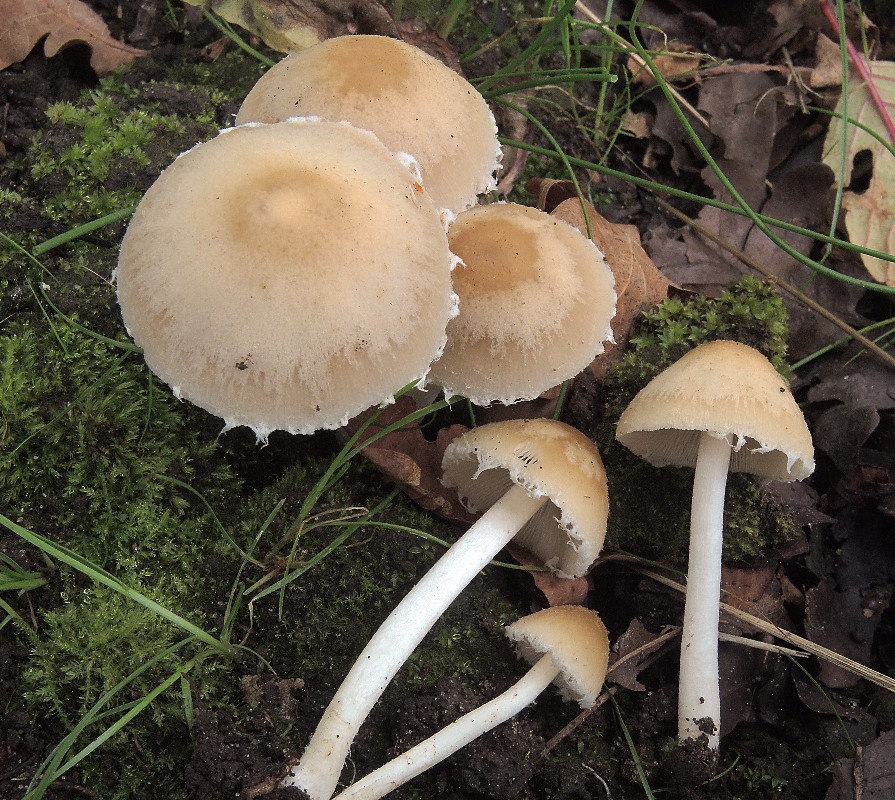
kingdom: Fungi
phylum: Basidiomycota
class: Agaricomycetes
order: Agaricales
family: Psathyrellaceae
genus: Candolleomyces
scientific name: Candolleomyces candolleanus
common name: Candolles mørkhat
